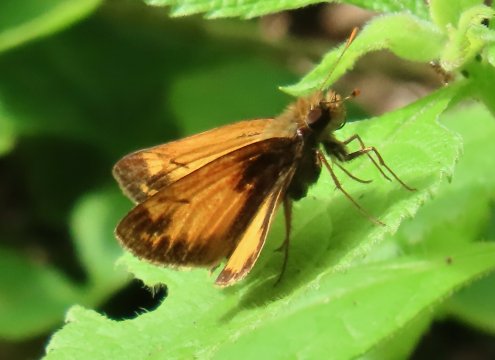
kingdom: Animalia
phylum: Arthropoda
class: Insecta
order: Lepidoptera
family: Hesperiidae
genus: Lon
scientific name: Lon zabulon
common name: Zabulon Skipper
